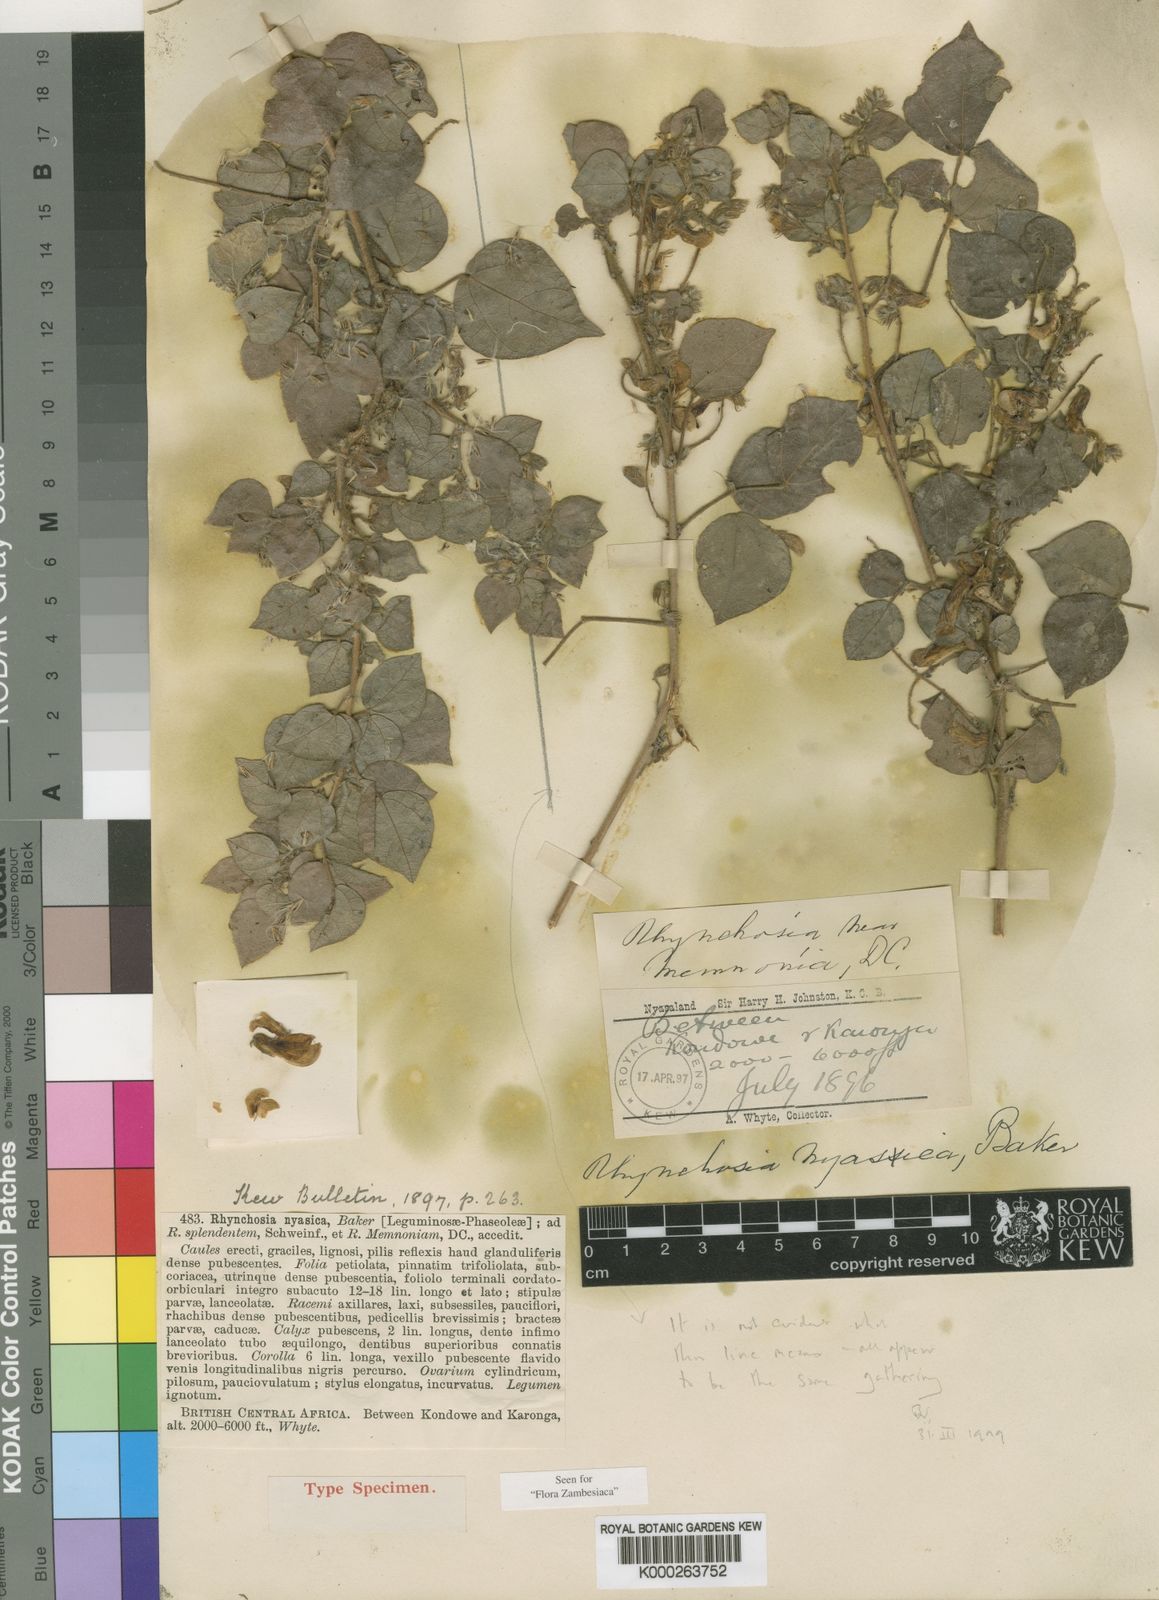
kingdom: Plantae
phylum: Tracheophyta
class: Magnoliopsida
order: Fabales
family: Fabaceae
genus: Rhynchosia
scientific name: Rhynchosia nyasica
